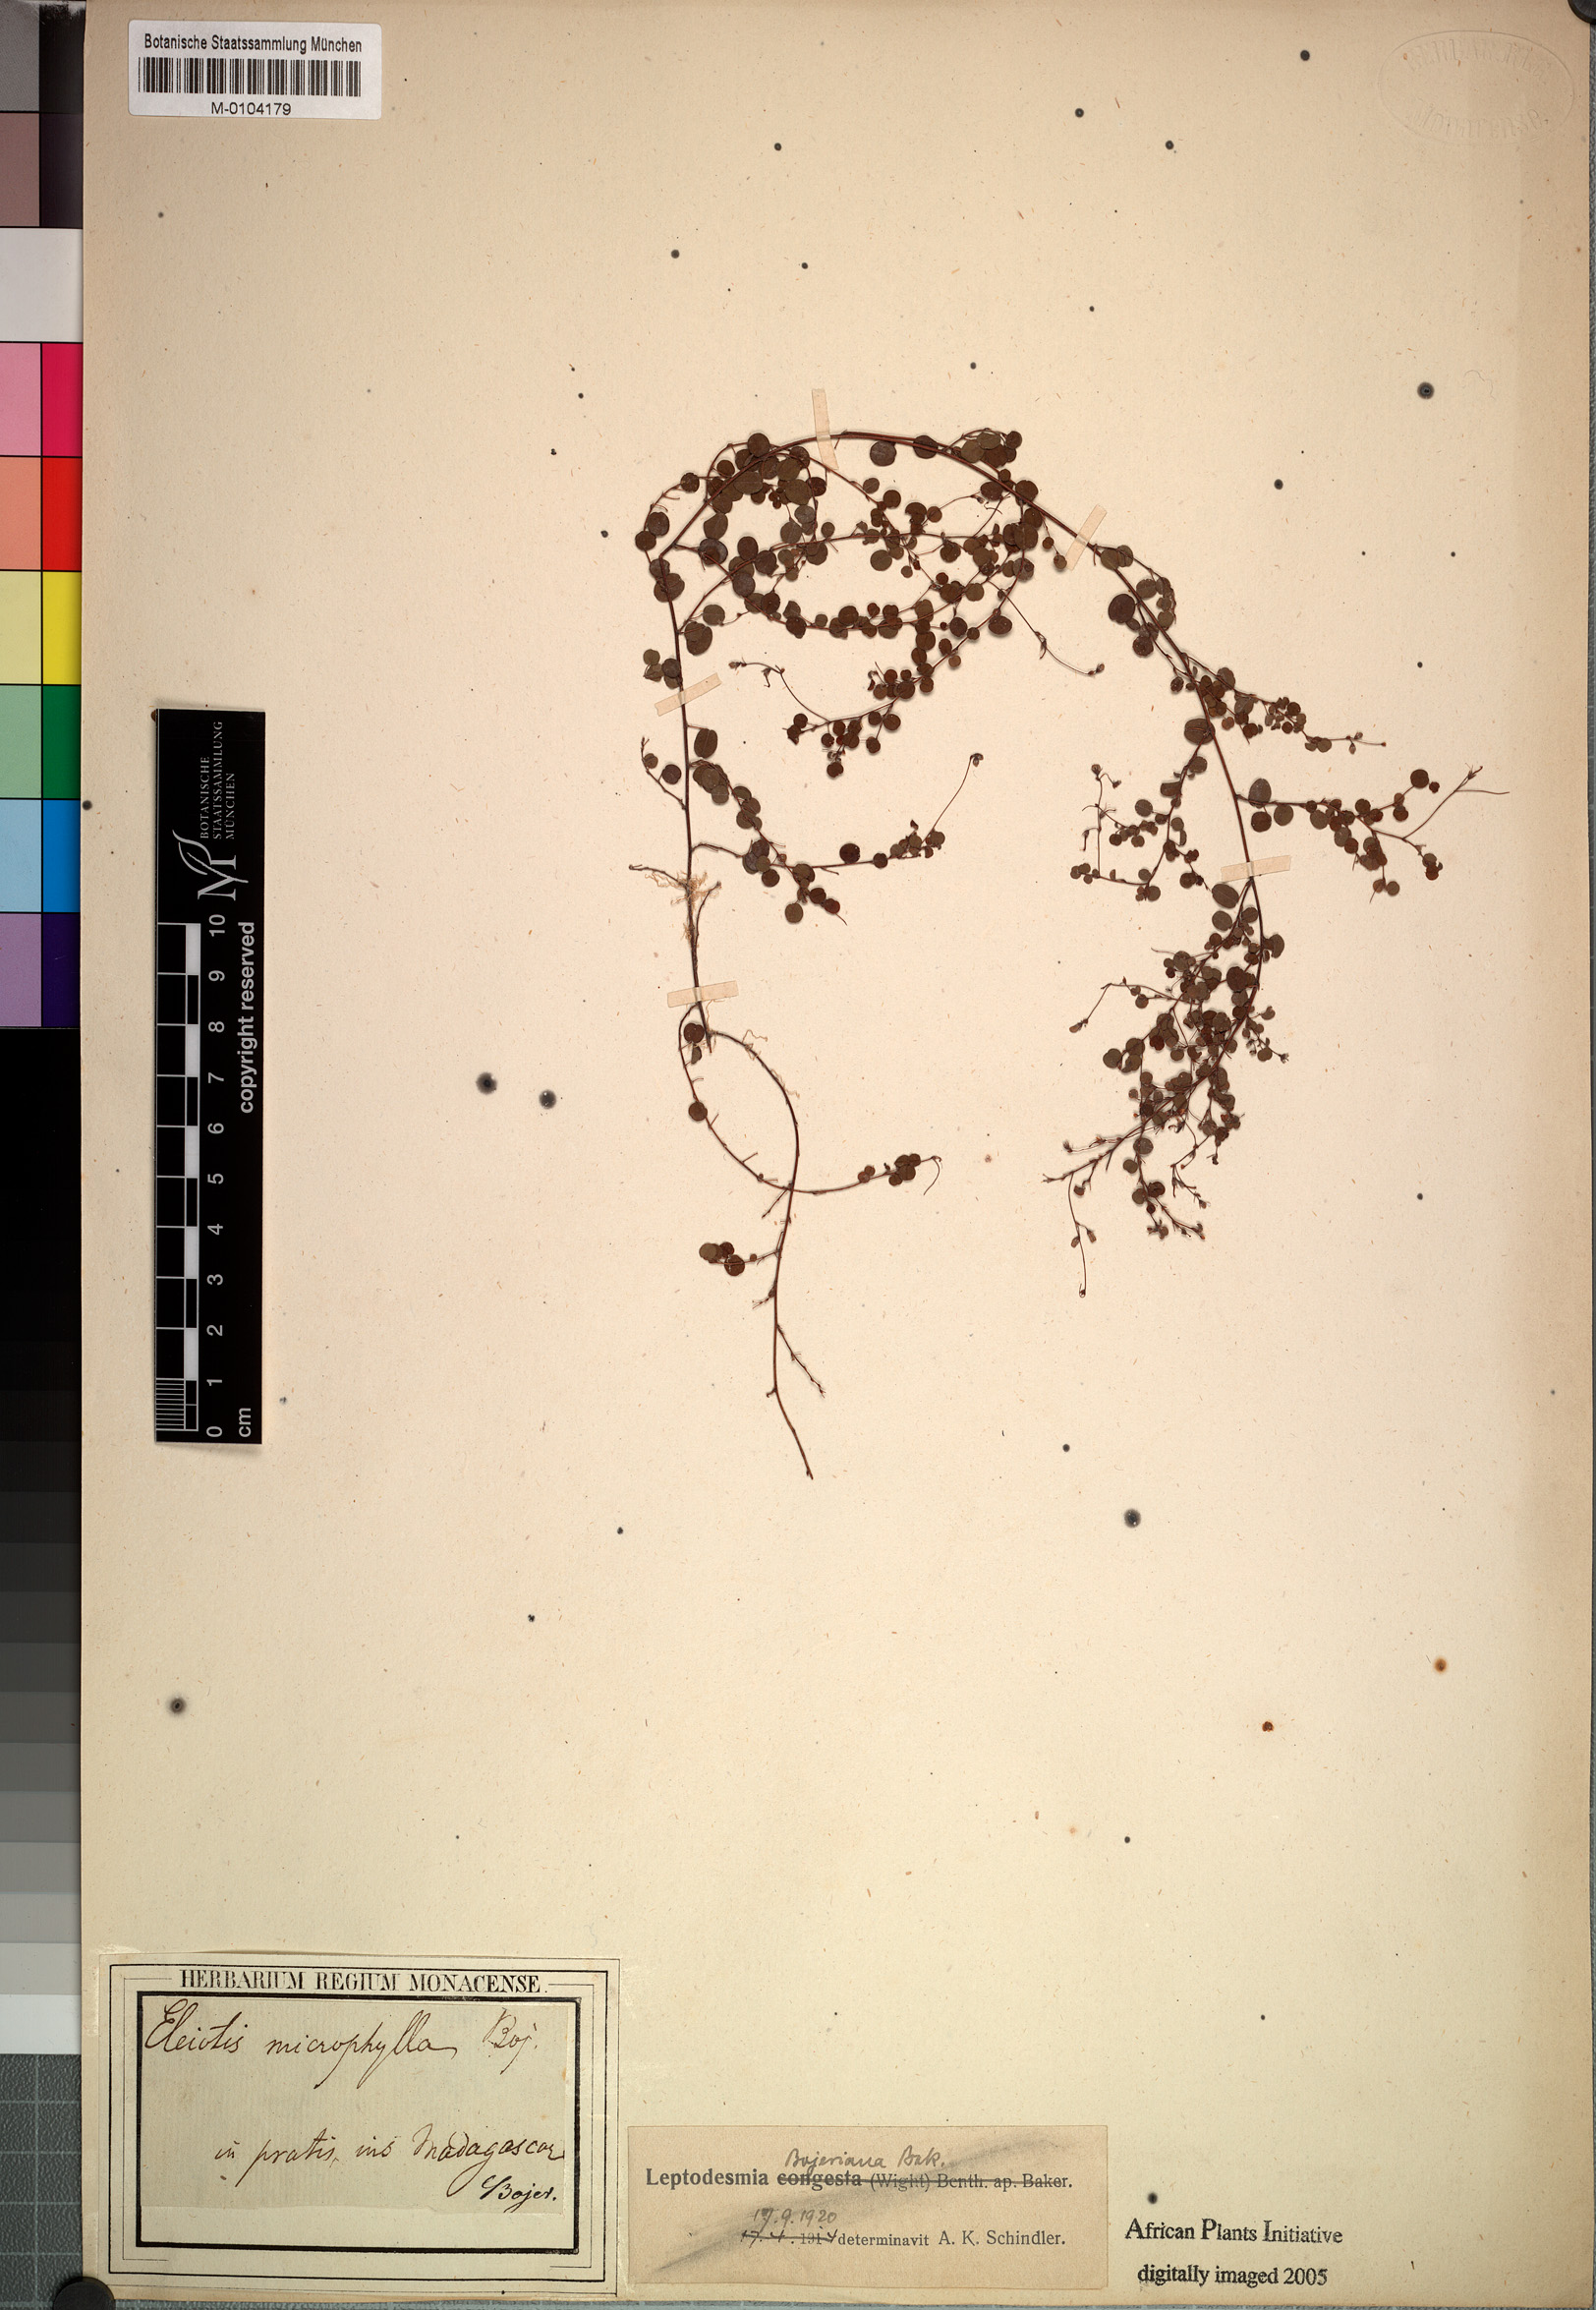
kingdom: Plantae
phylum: Tracheophyta
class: Magnoliopsida
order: Fabales
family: Fabaceae
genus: Leptodesmia
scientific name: Leptodesmia bojeriana
